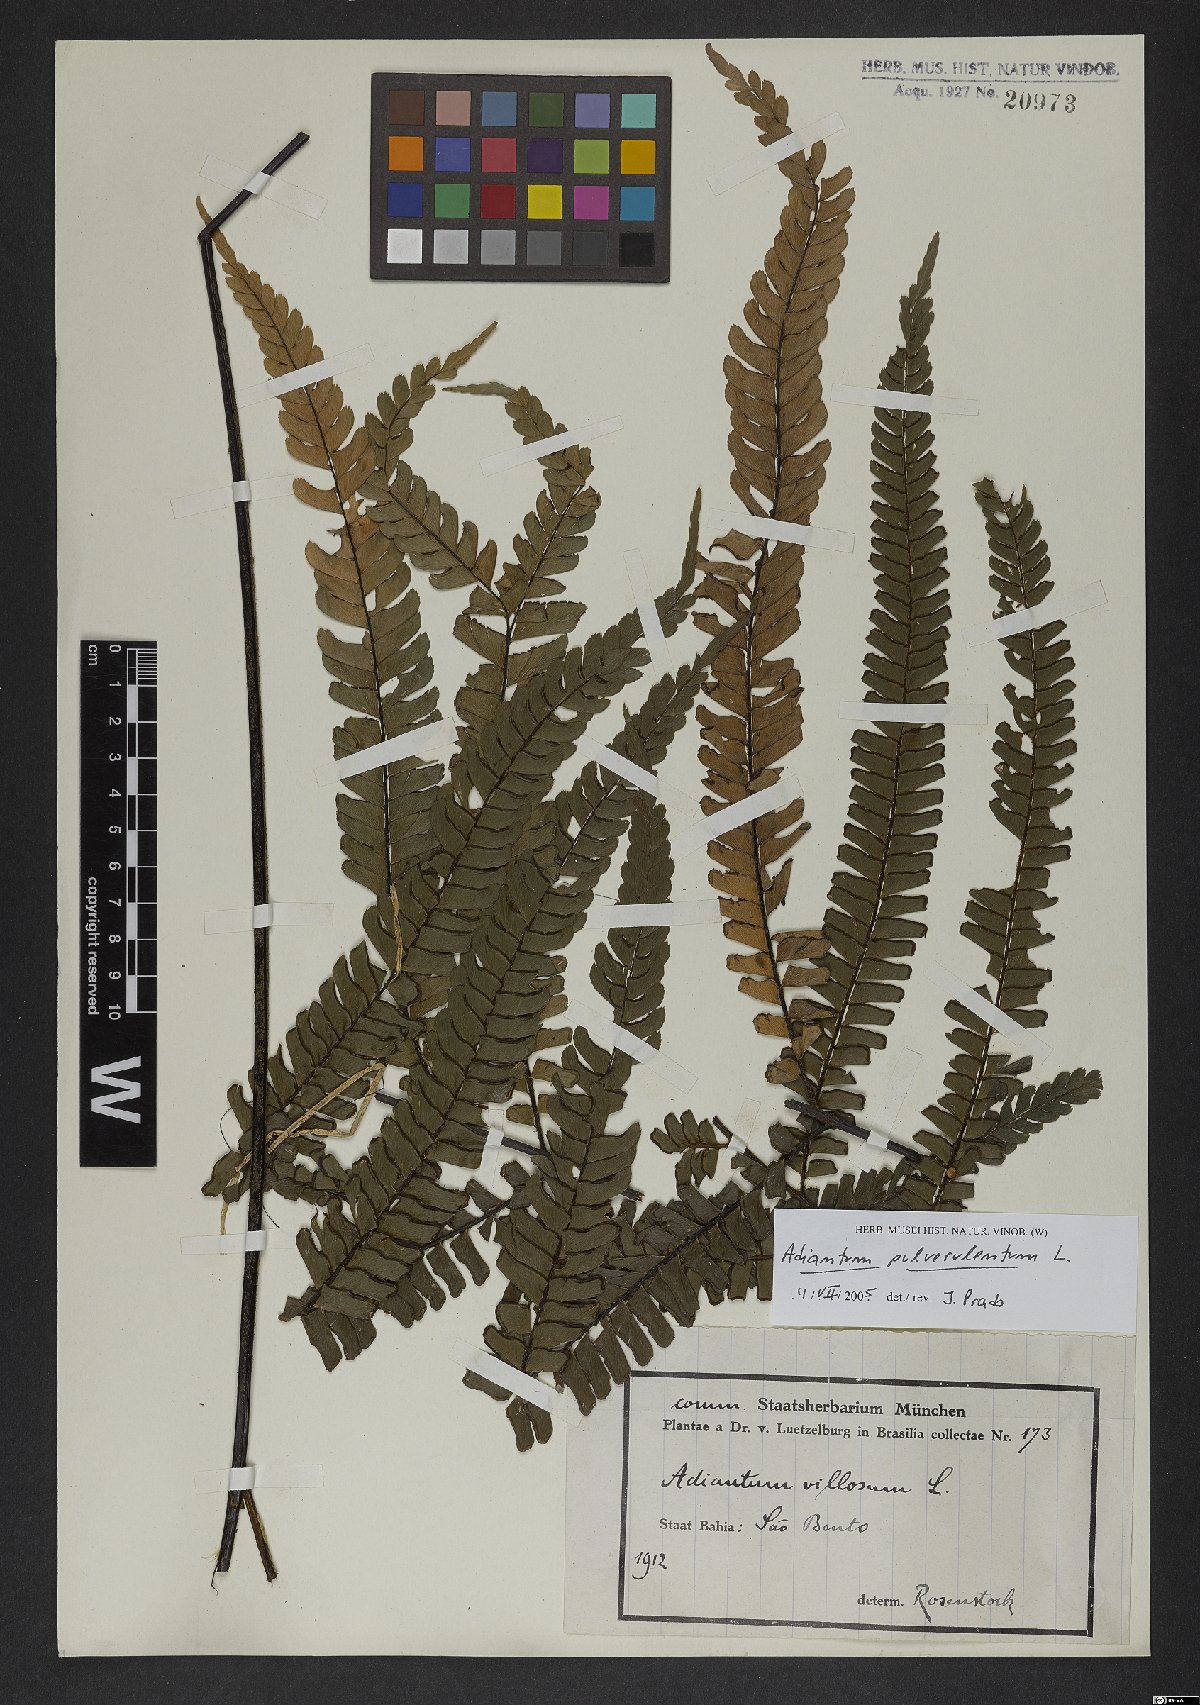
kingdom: Plantae
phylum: Tracheophyta
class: Polypodiopsida
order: Polypodiales
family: Pteridaceae
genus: Adiantum
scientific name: Adiantum pulverulentum
